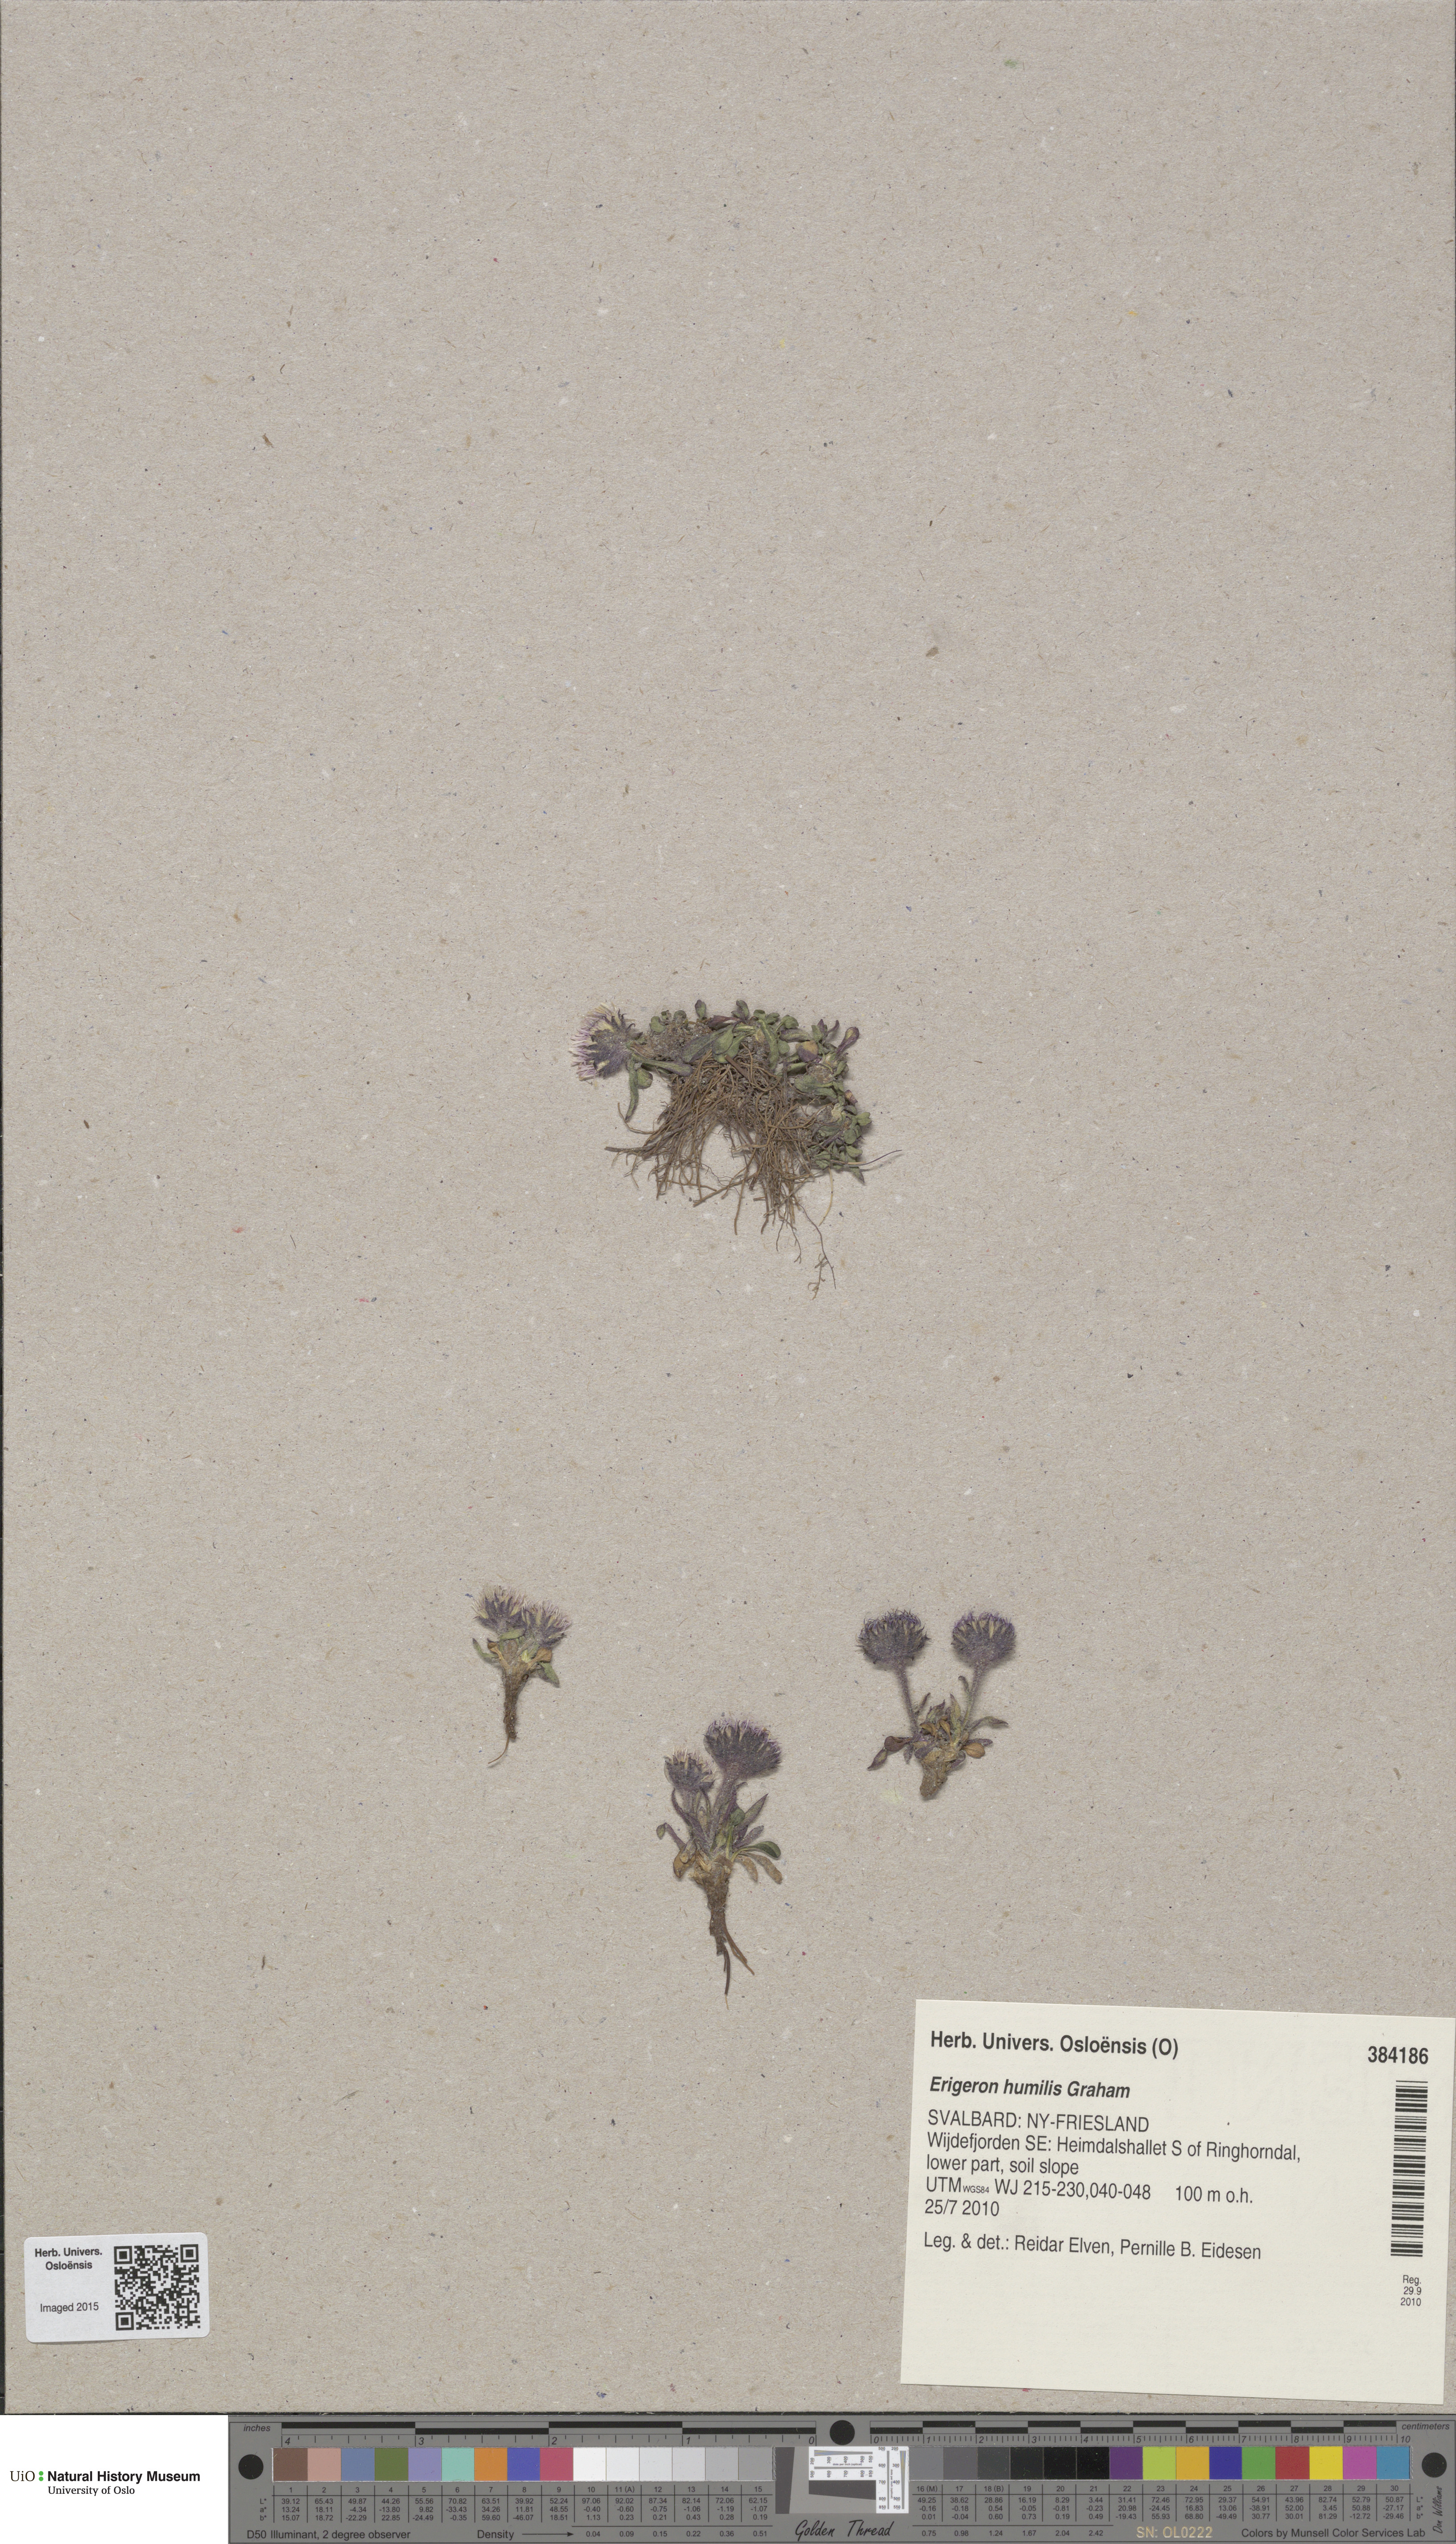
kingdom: Plantae
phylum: Tracheophyta
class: Magnoliopsida
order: Asterales
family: Asteraceae
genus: Erigeron
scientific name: Erigeron humilis
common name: Arctic-alpine fleabane
